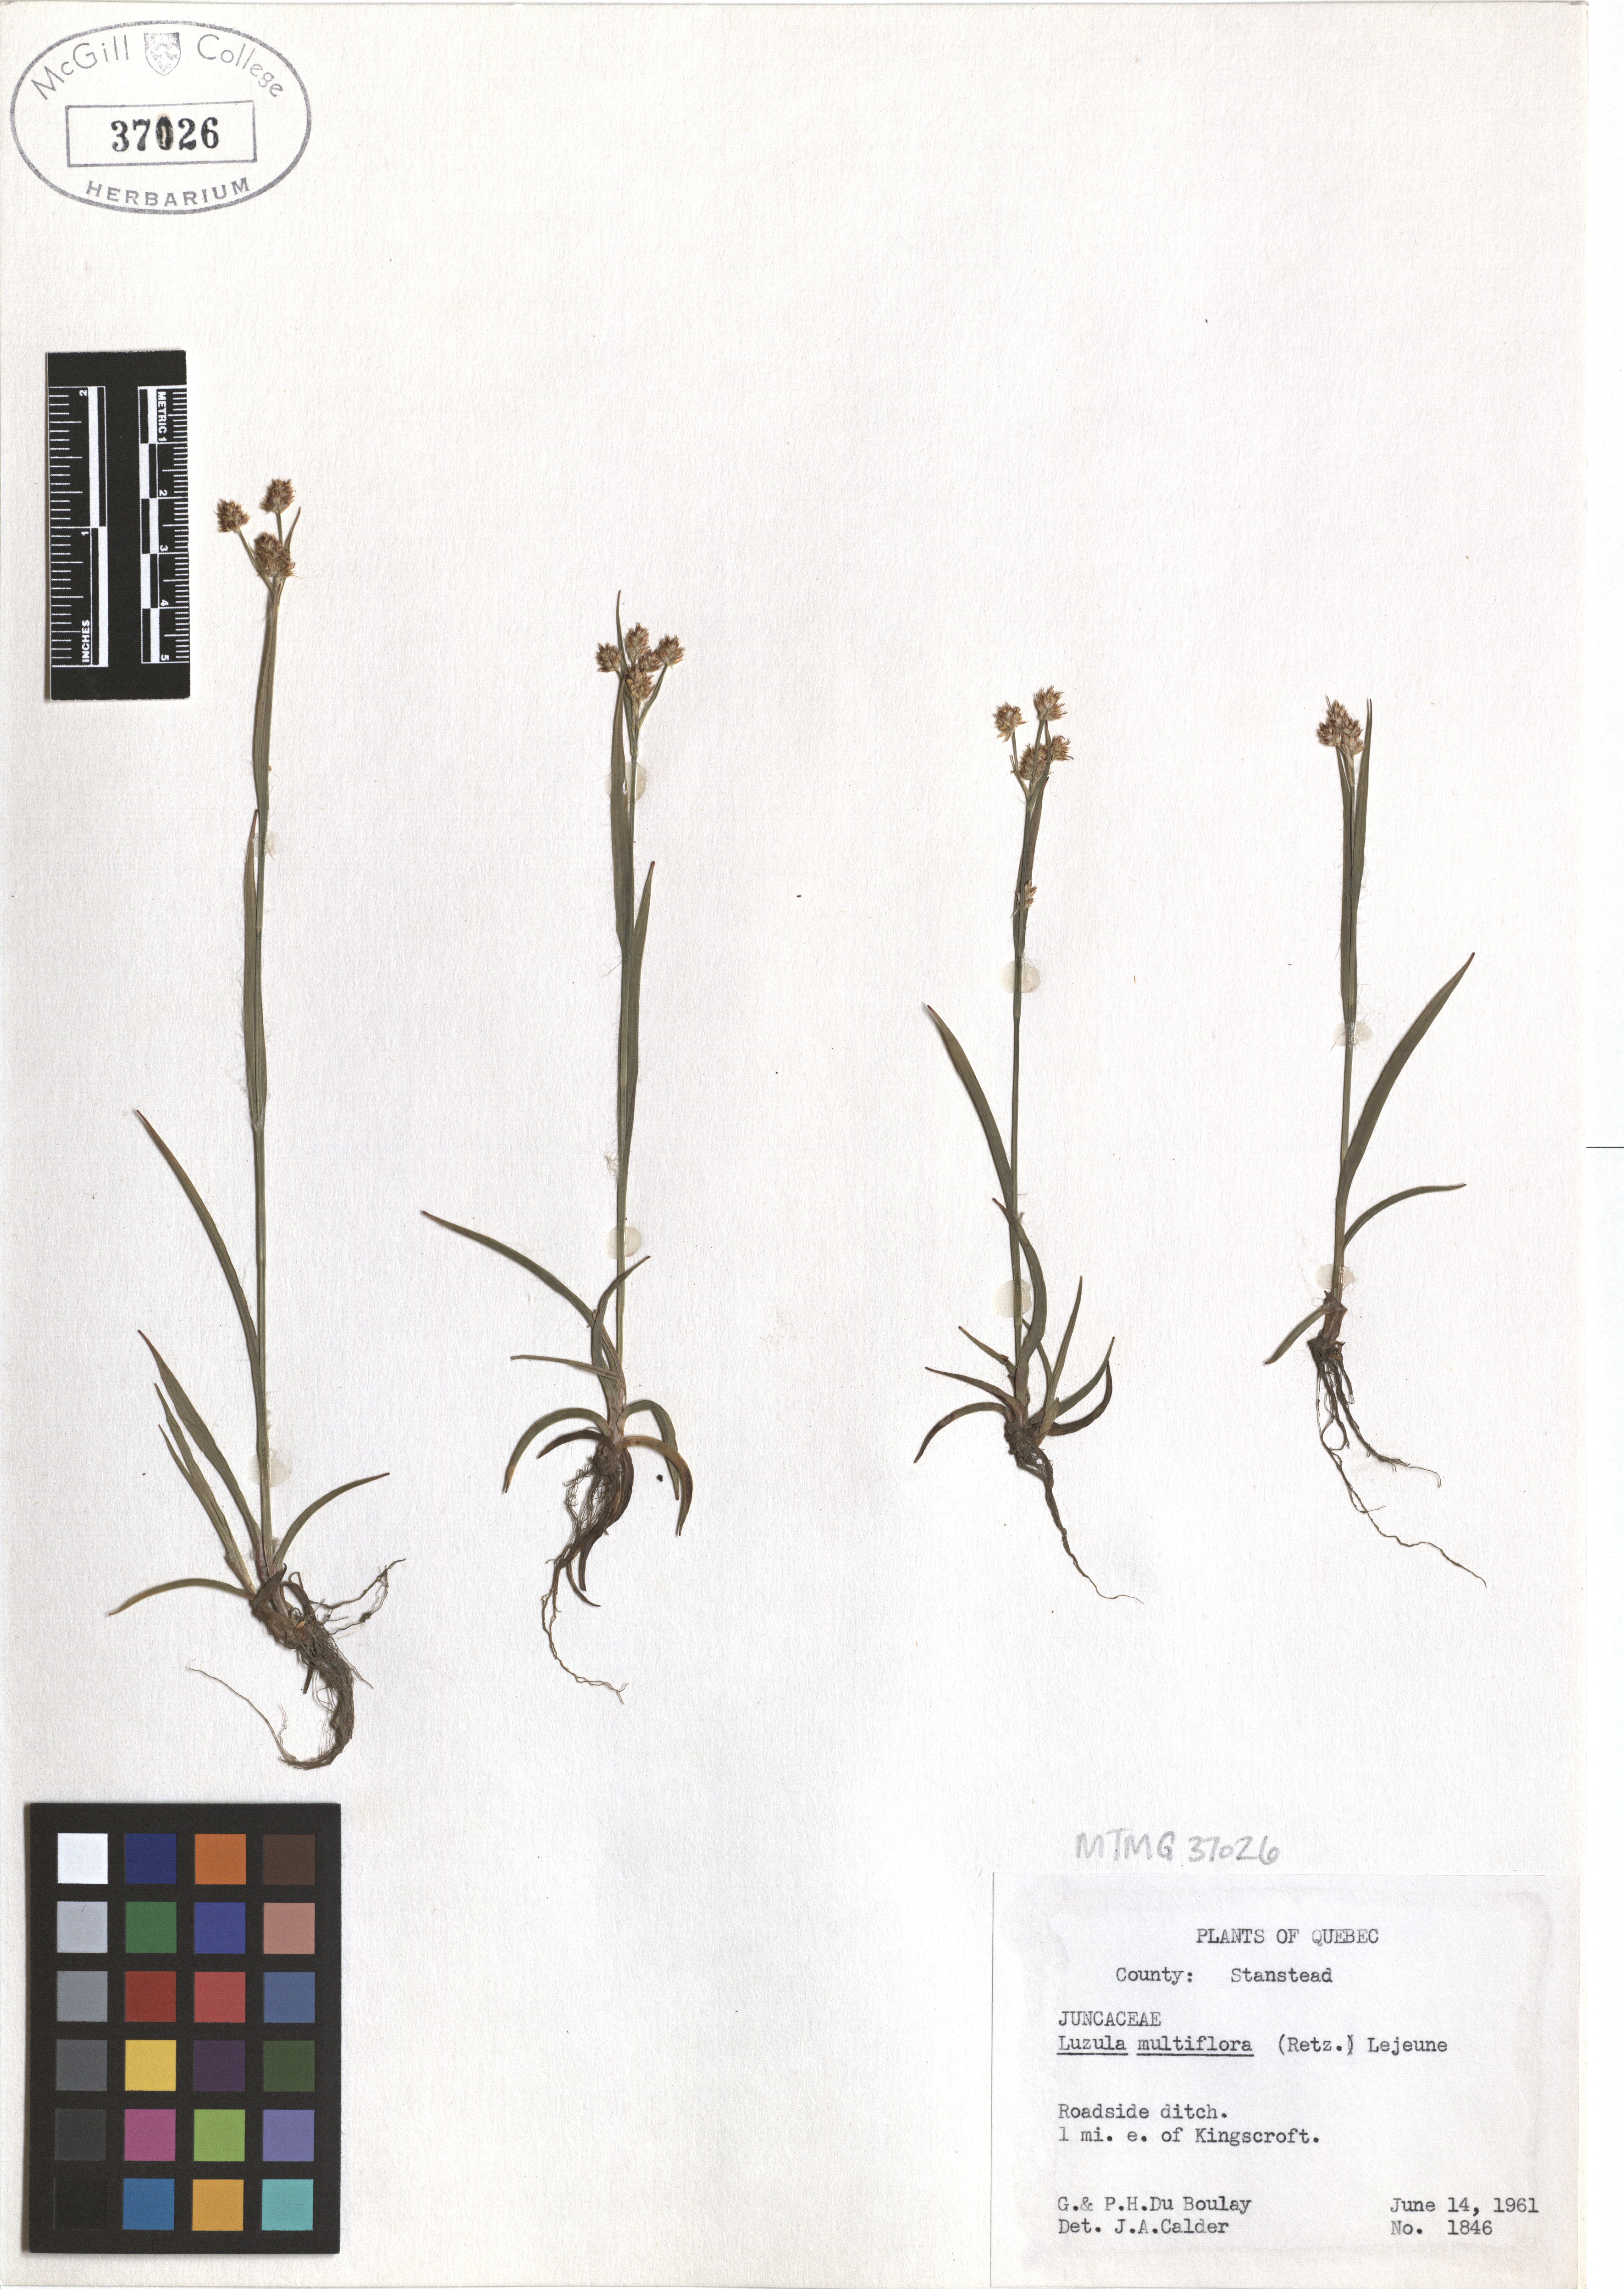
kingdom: Plantae
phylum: Tracheophyta
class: Liliopsida
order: Poales
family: Juncaceae
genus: Luzula
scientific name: Luzula multiflora
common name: Heath wood-rush
